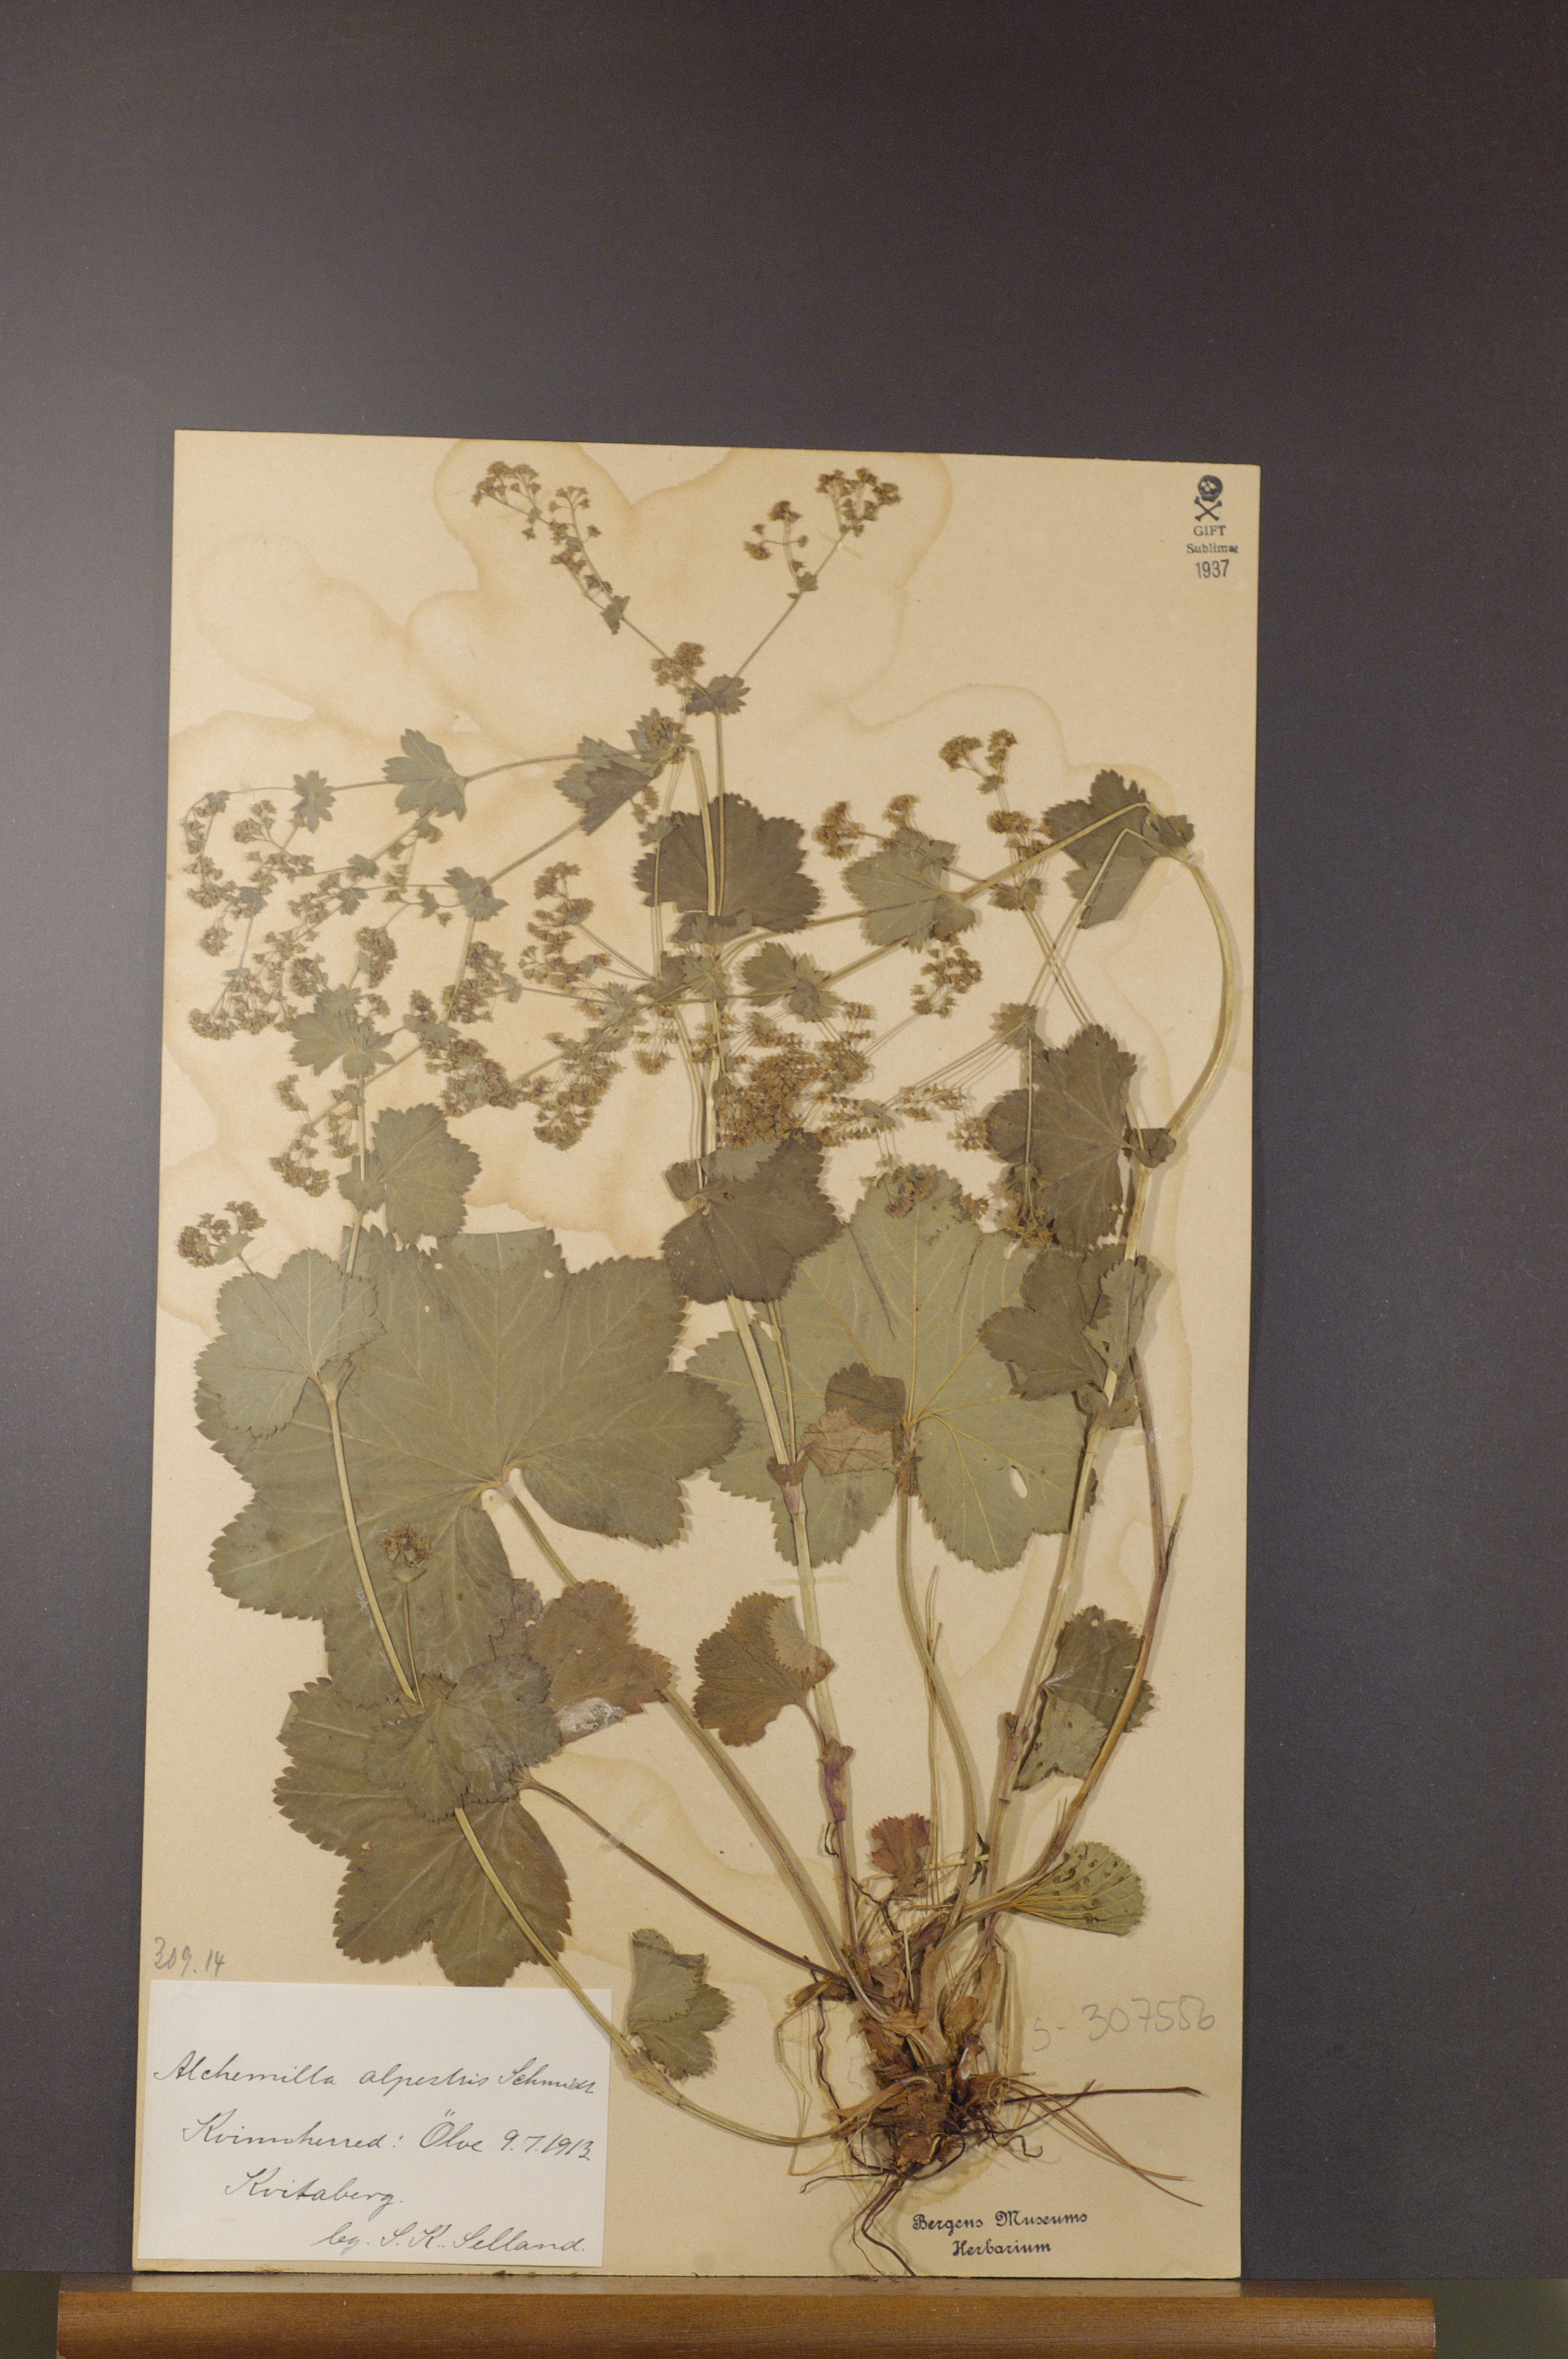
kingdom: Plantae
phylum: Tracheophyta
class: Magnoliopsida
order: Rosales
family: Rosaceae
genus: Alchemilla
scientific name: Alchemilla glabra
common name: Smooth lady's-mantle
